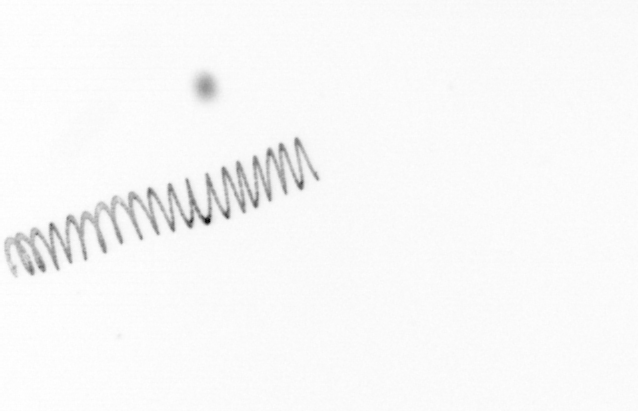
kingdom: Chromista
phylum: Ochrophyta
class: Bacillariophyceae
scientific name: Bacillariophyceae
